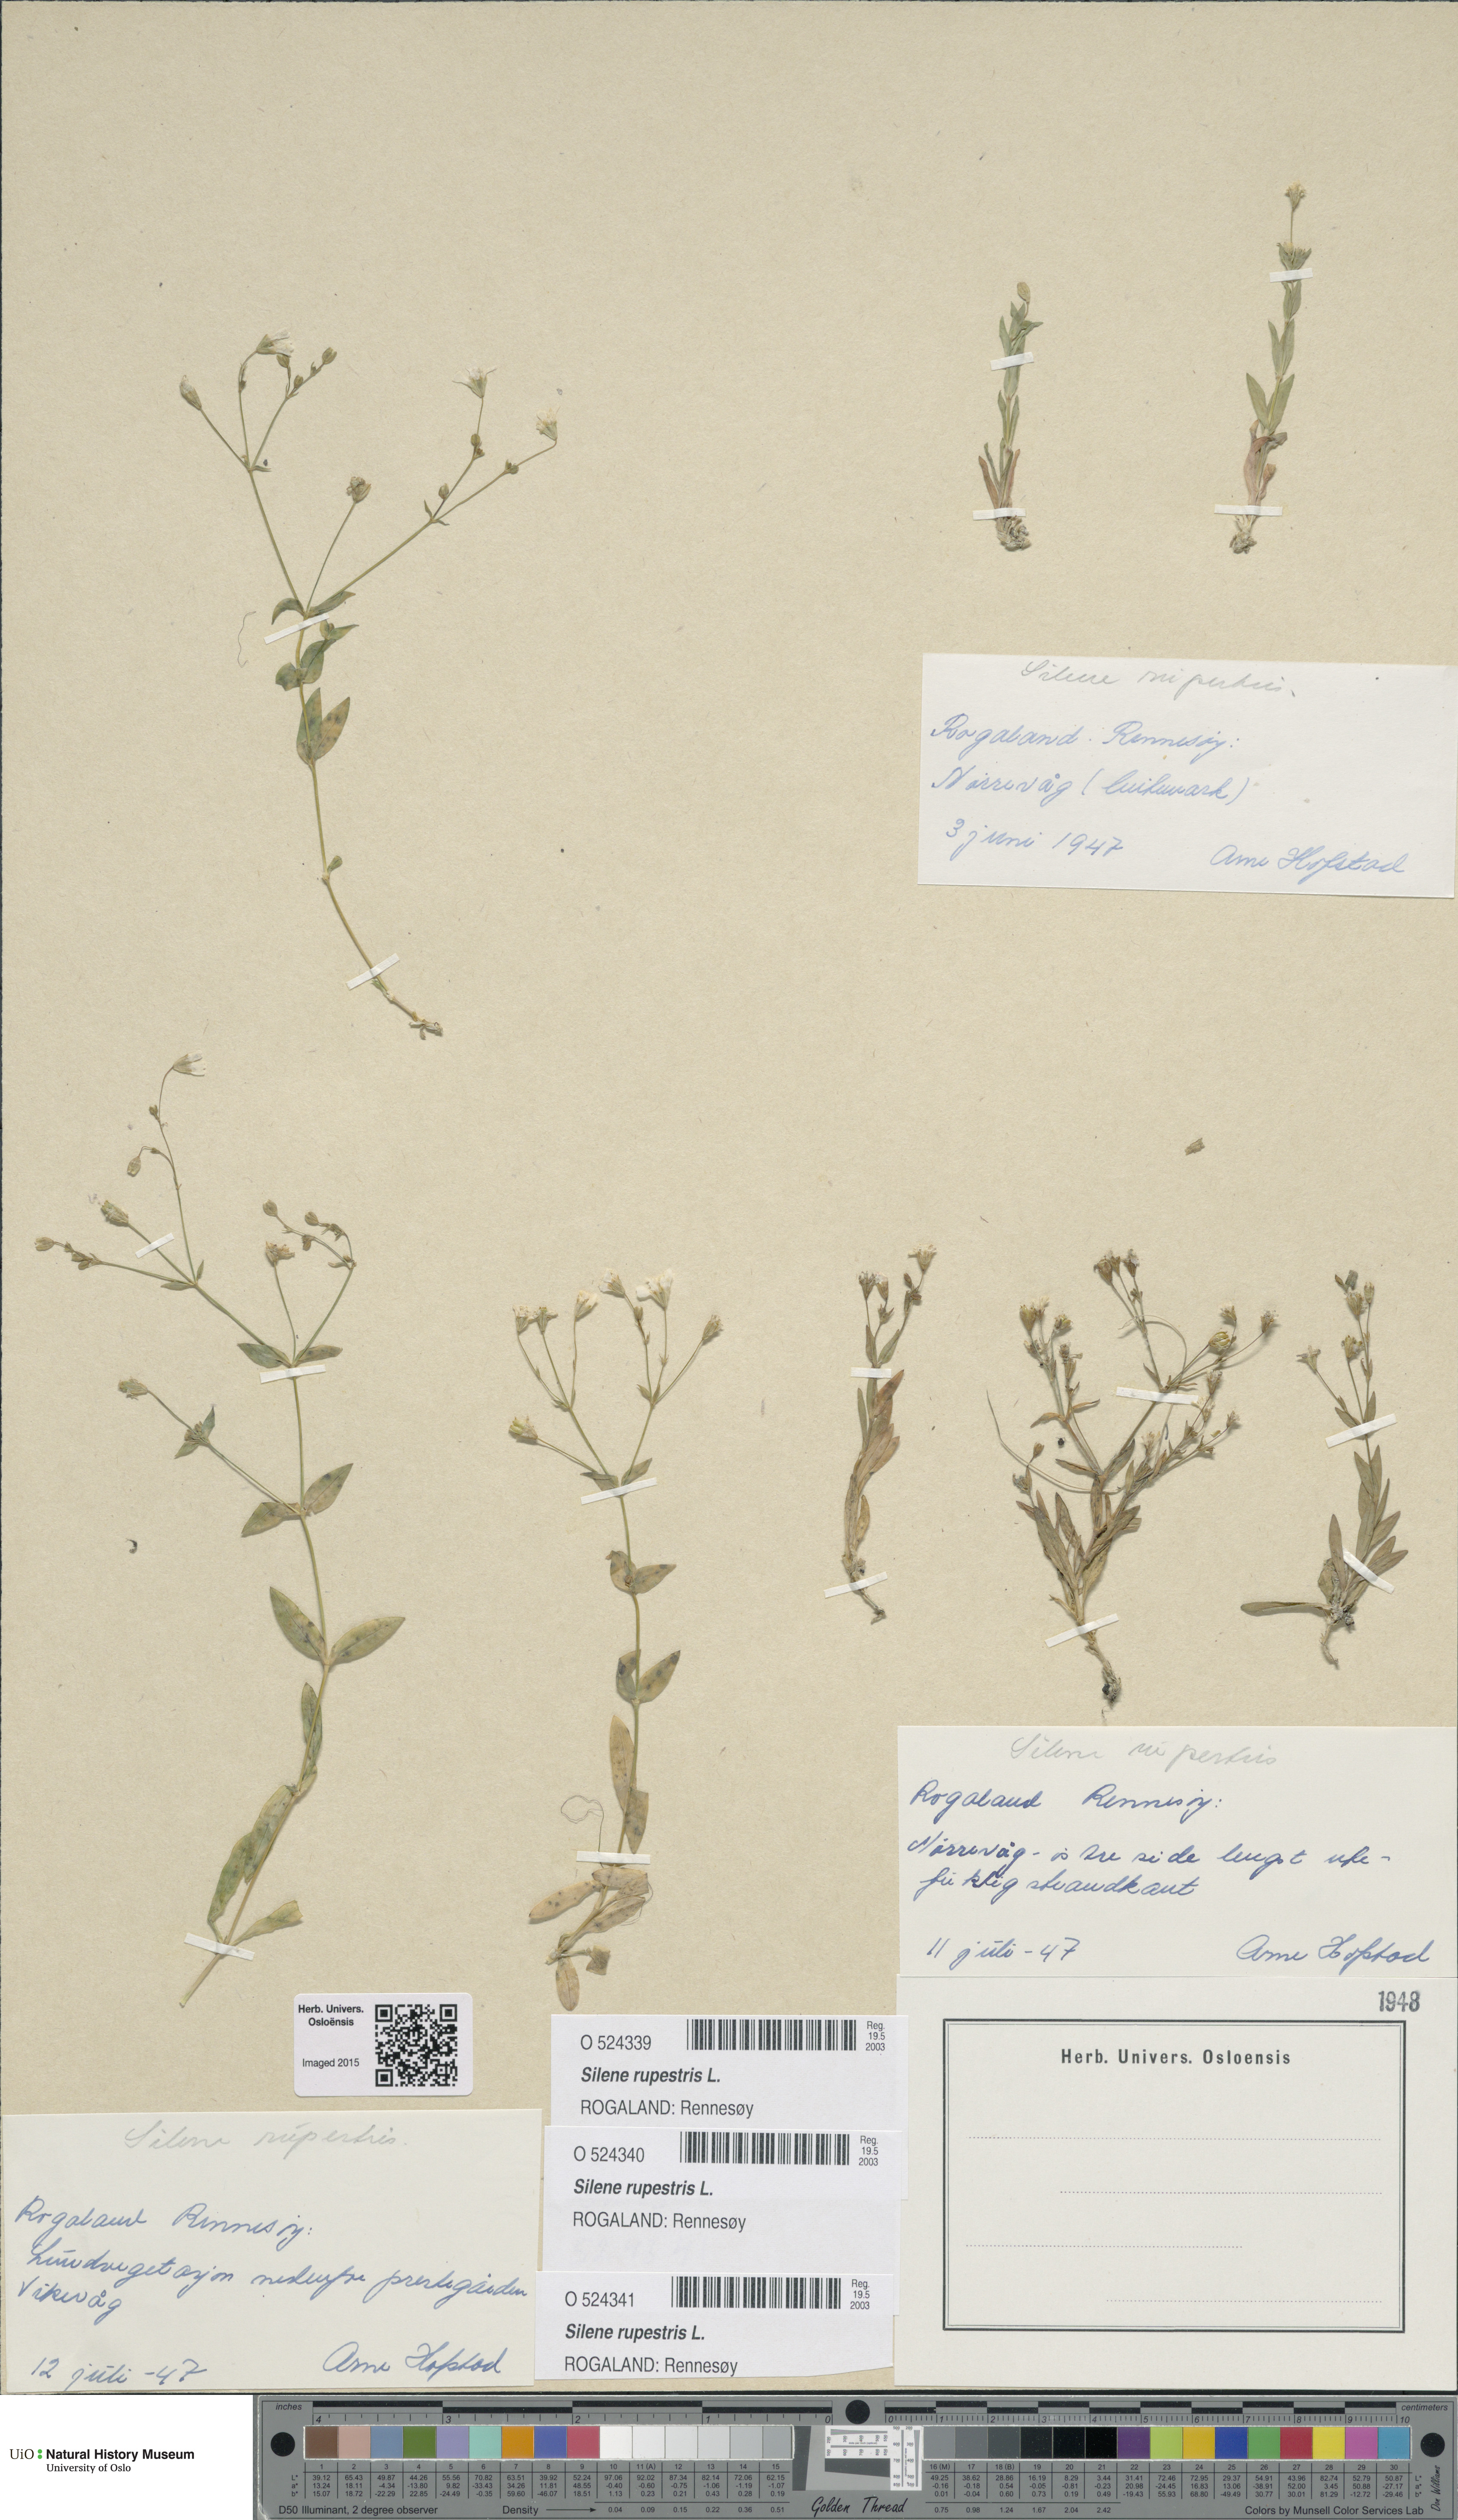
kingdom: Plantae
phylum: Tracheophyta
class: Magnoliopsida
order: Caryophyllales
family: Caryophyllaceae
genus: Atocion
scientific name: Atocion rupestre
